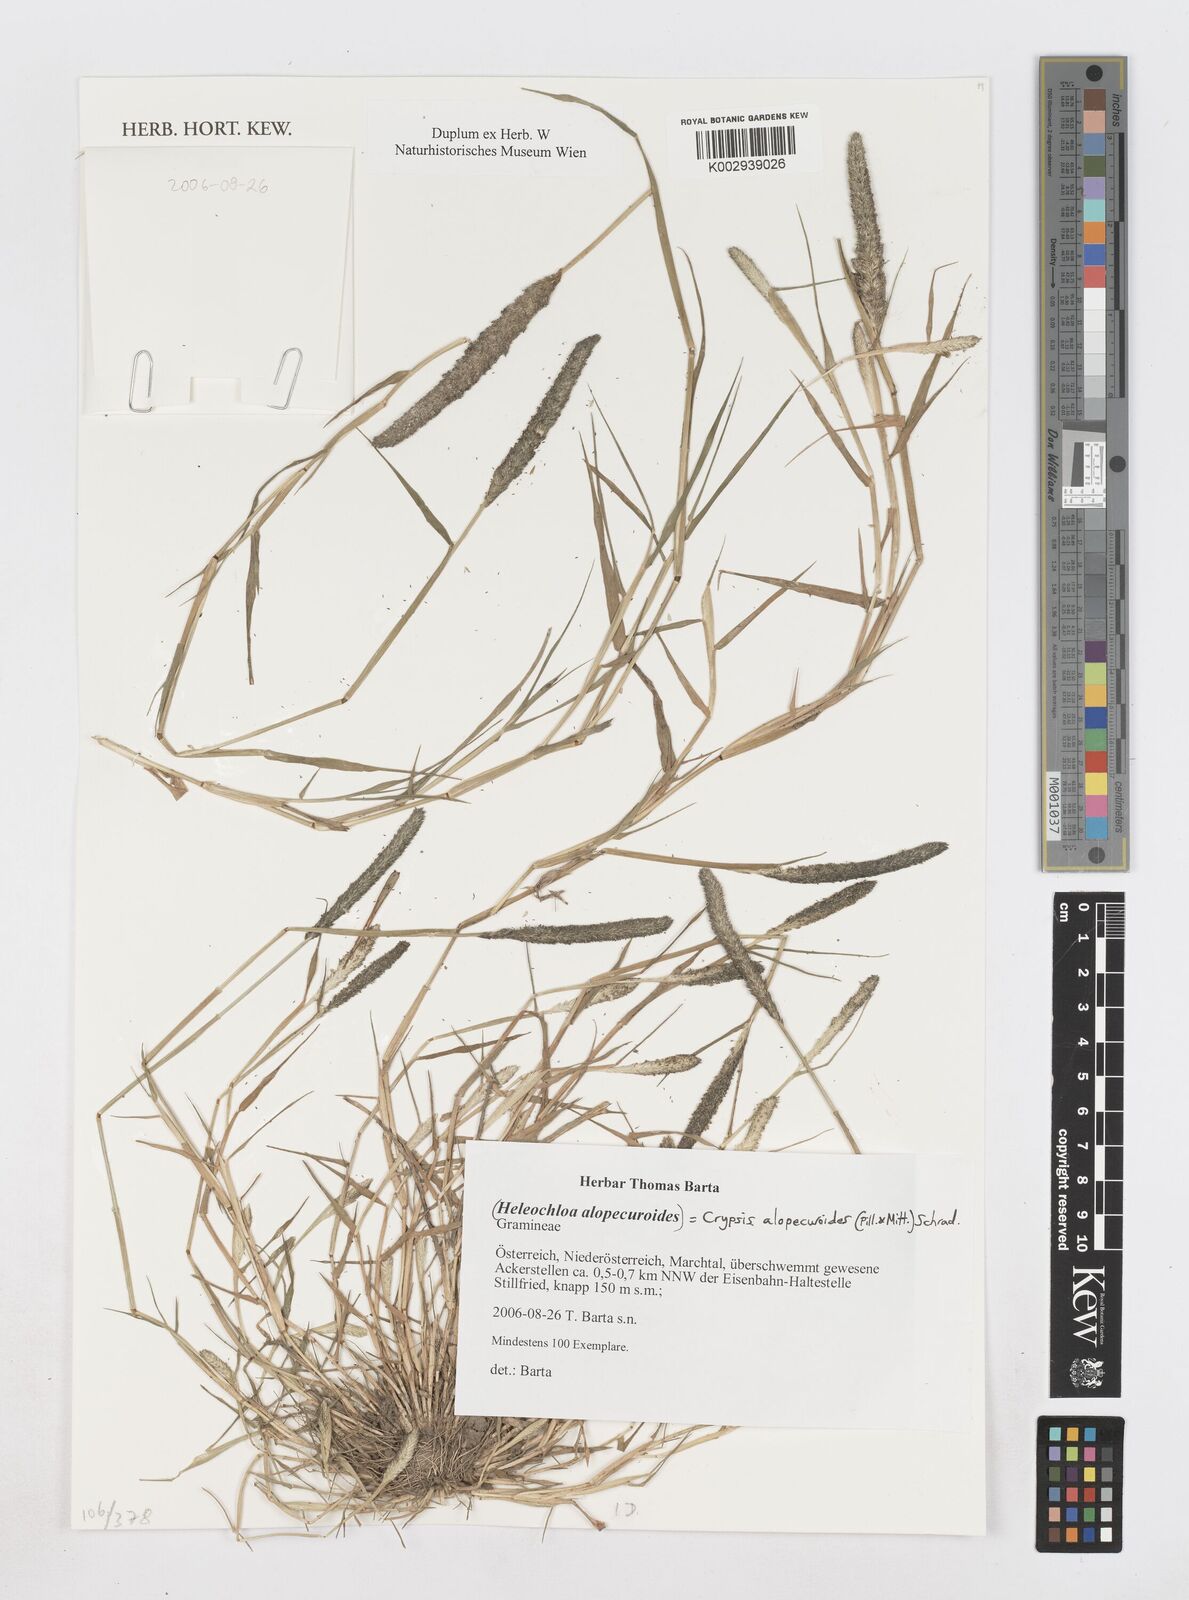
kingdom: Plantae
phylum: Tracheophyta
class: Liliopsida
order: Poales
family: Poaceae
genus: Sporobolus
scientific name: Sporobolus alopecuroides
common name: Foxtail pricklegrass
